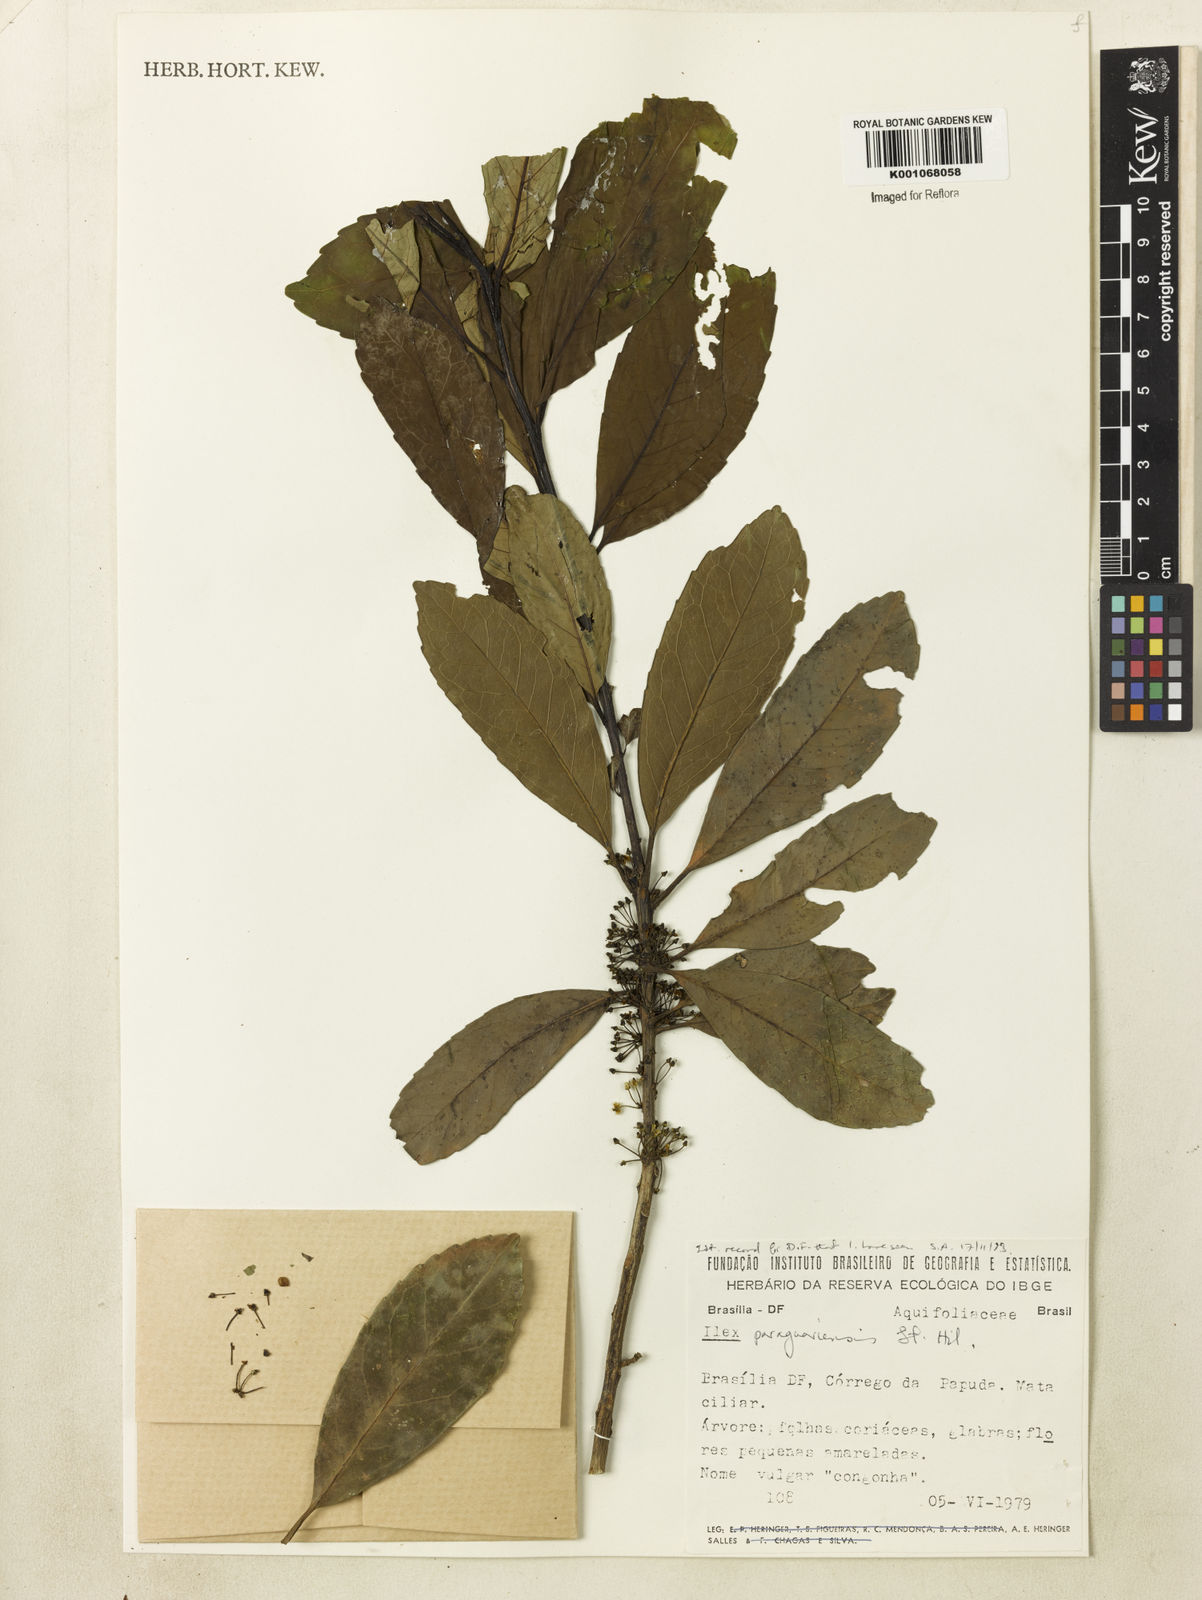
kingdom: Plantae
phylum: Tracheophyta
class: Magnoliopsida
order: Aquifoliales
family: Aquifoliaceae
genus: Ilex
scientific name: Ilex paraguariensis
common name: Paraguay tea
